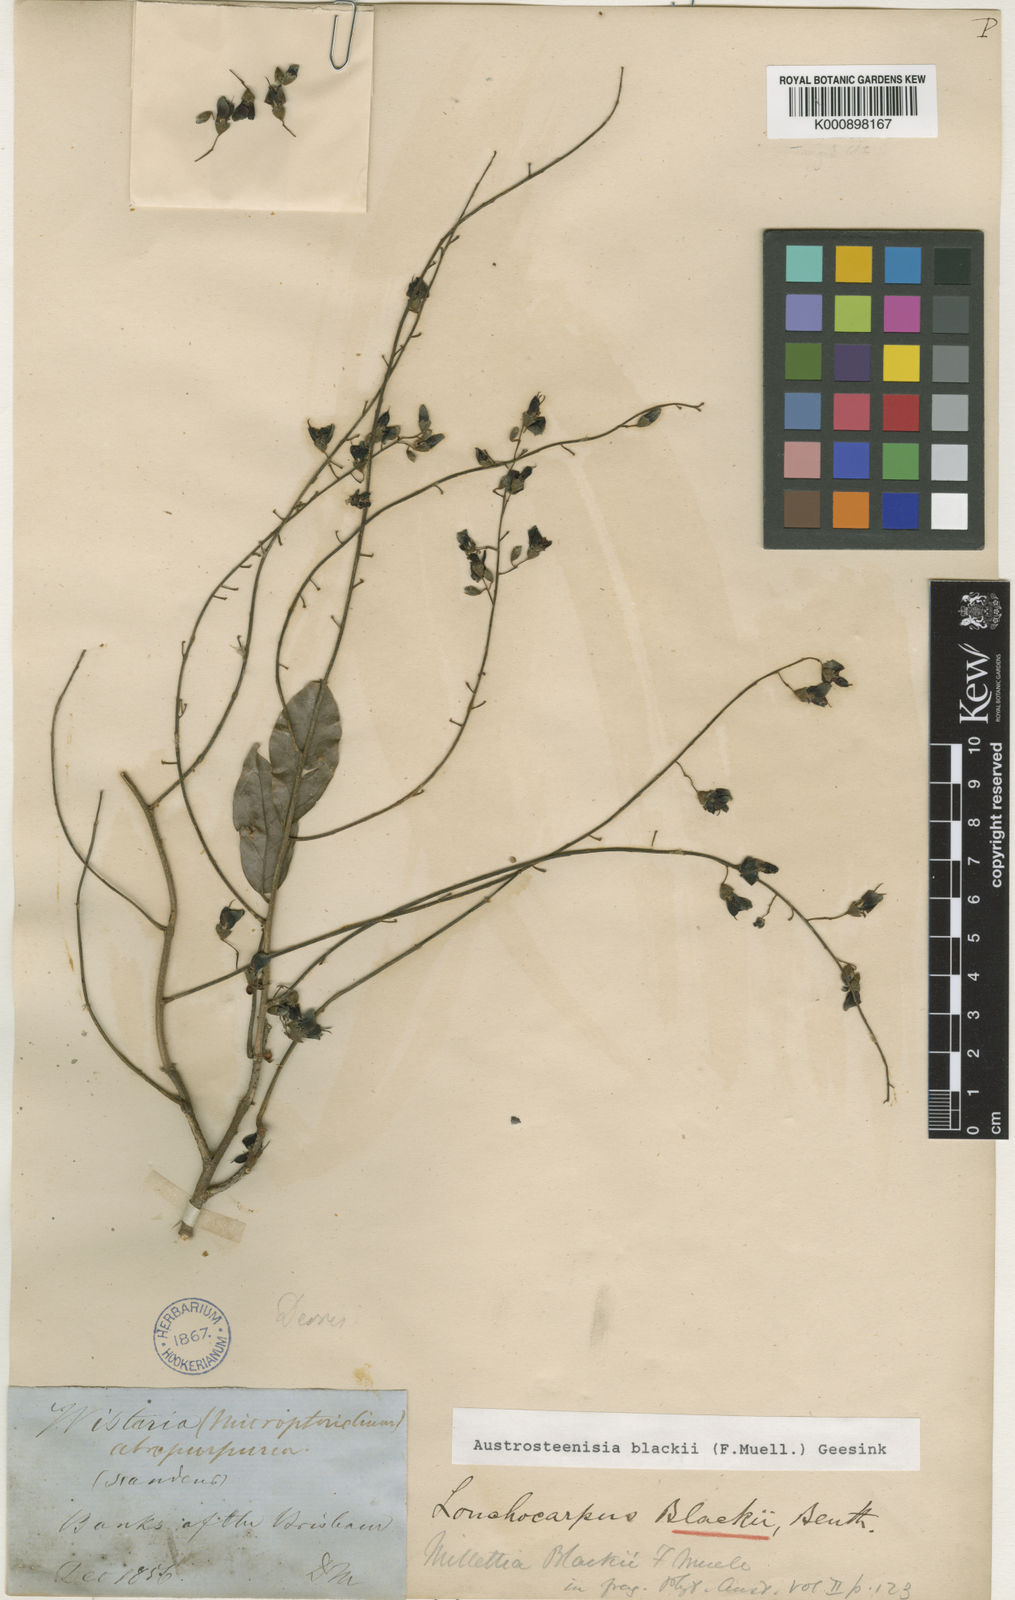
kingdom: Plantae
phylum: Tracheophyta
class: Magnoliopsida
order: Fabales
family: Fabaceae
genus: Austrosteenisia
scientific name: Austrosteenisia blackii
